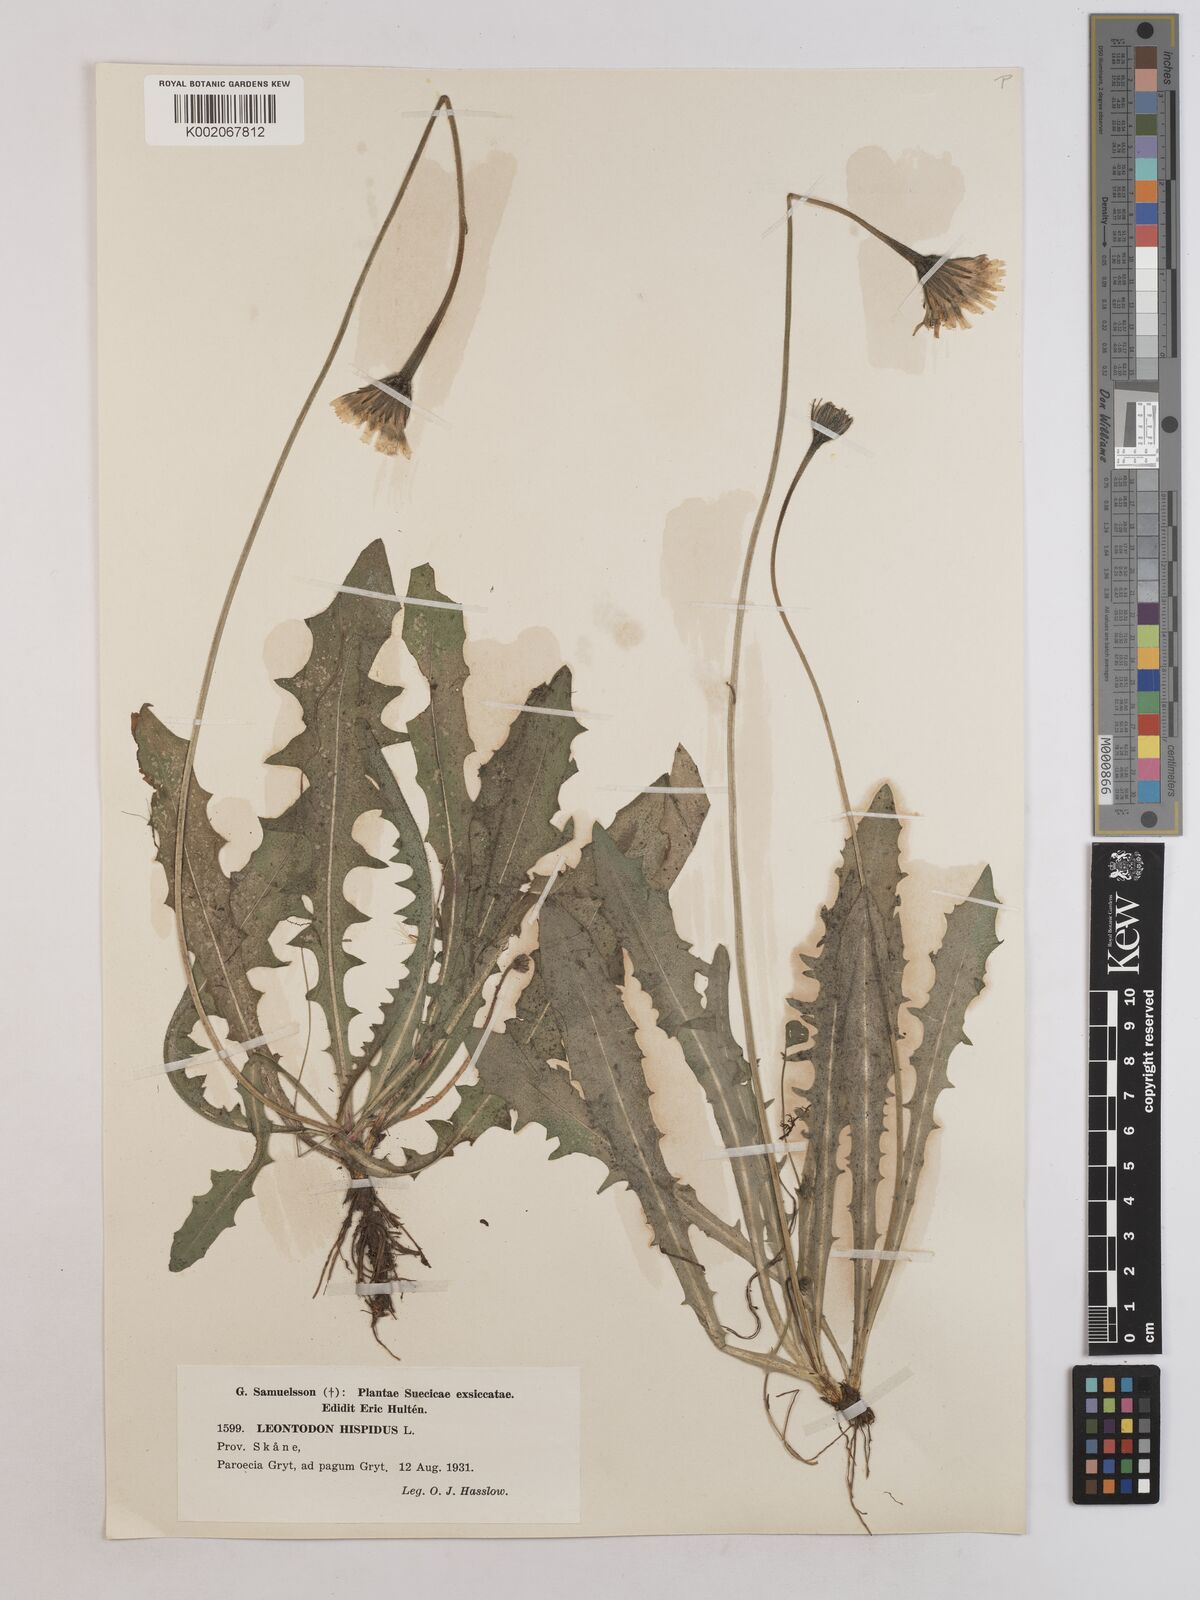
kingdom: Plantae
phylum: Tracheophyta
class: Magnoliopsida
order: Asterales
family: Asteraceae
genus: Leontodon
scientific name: Leontodon hispidus
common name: Rough hawkbit
